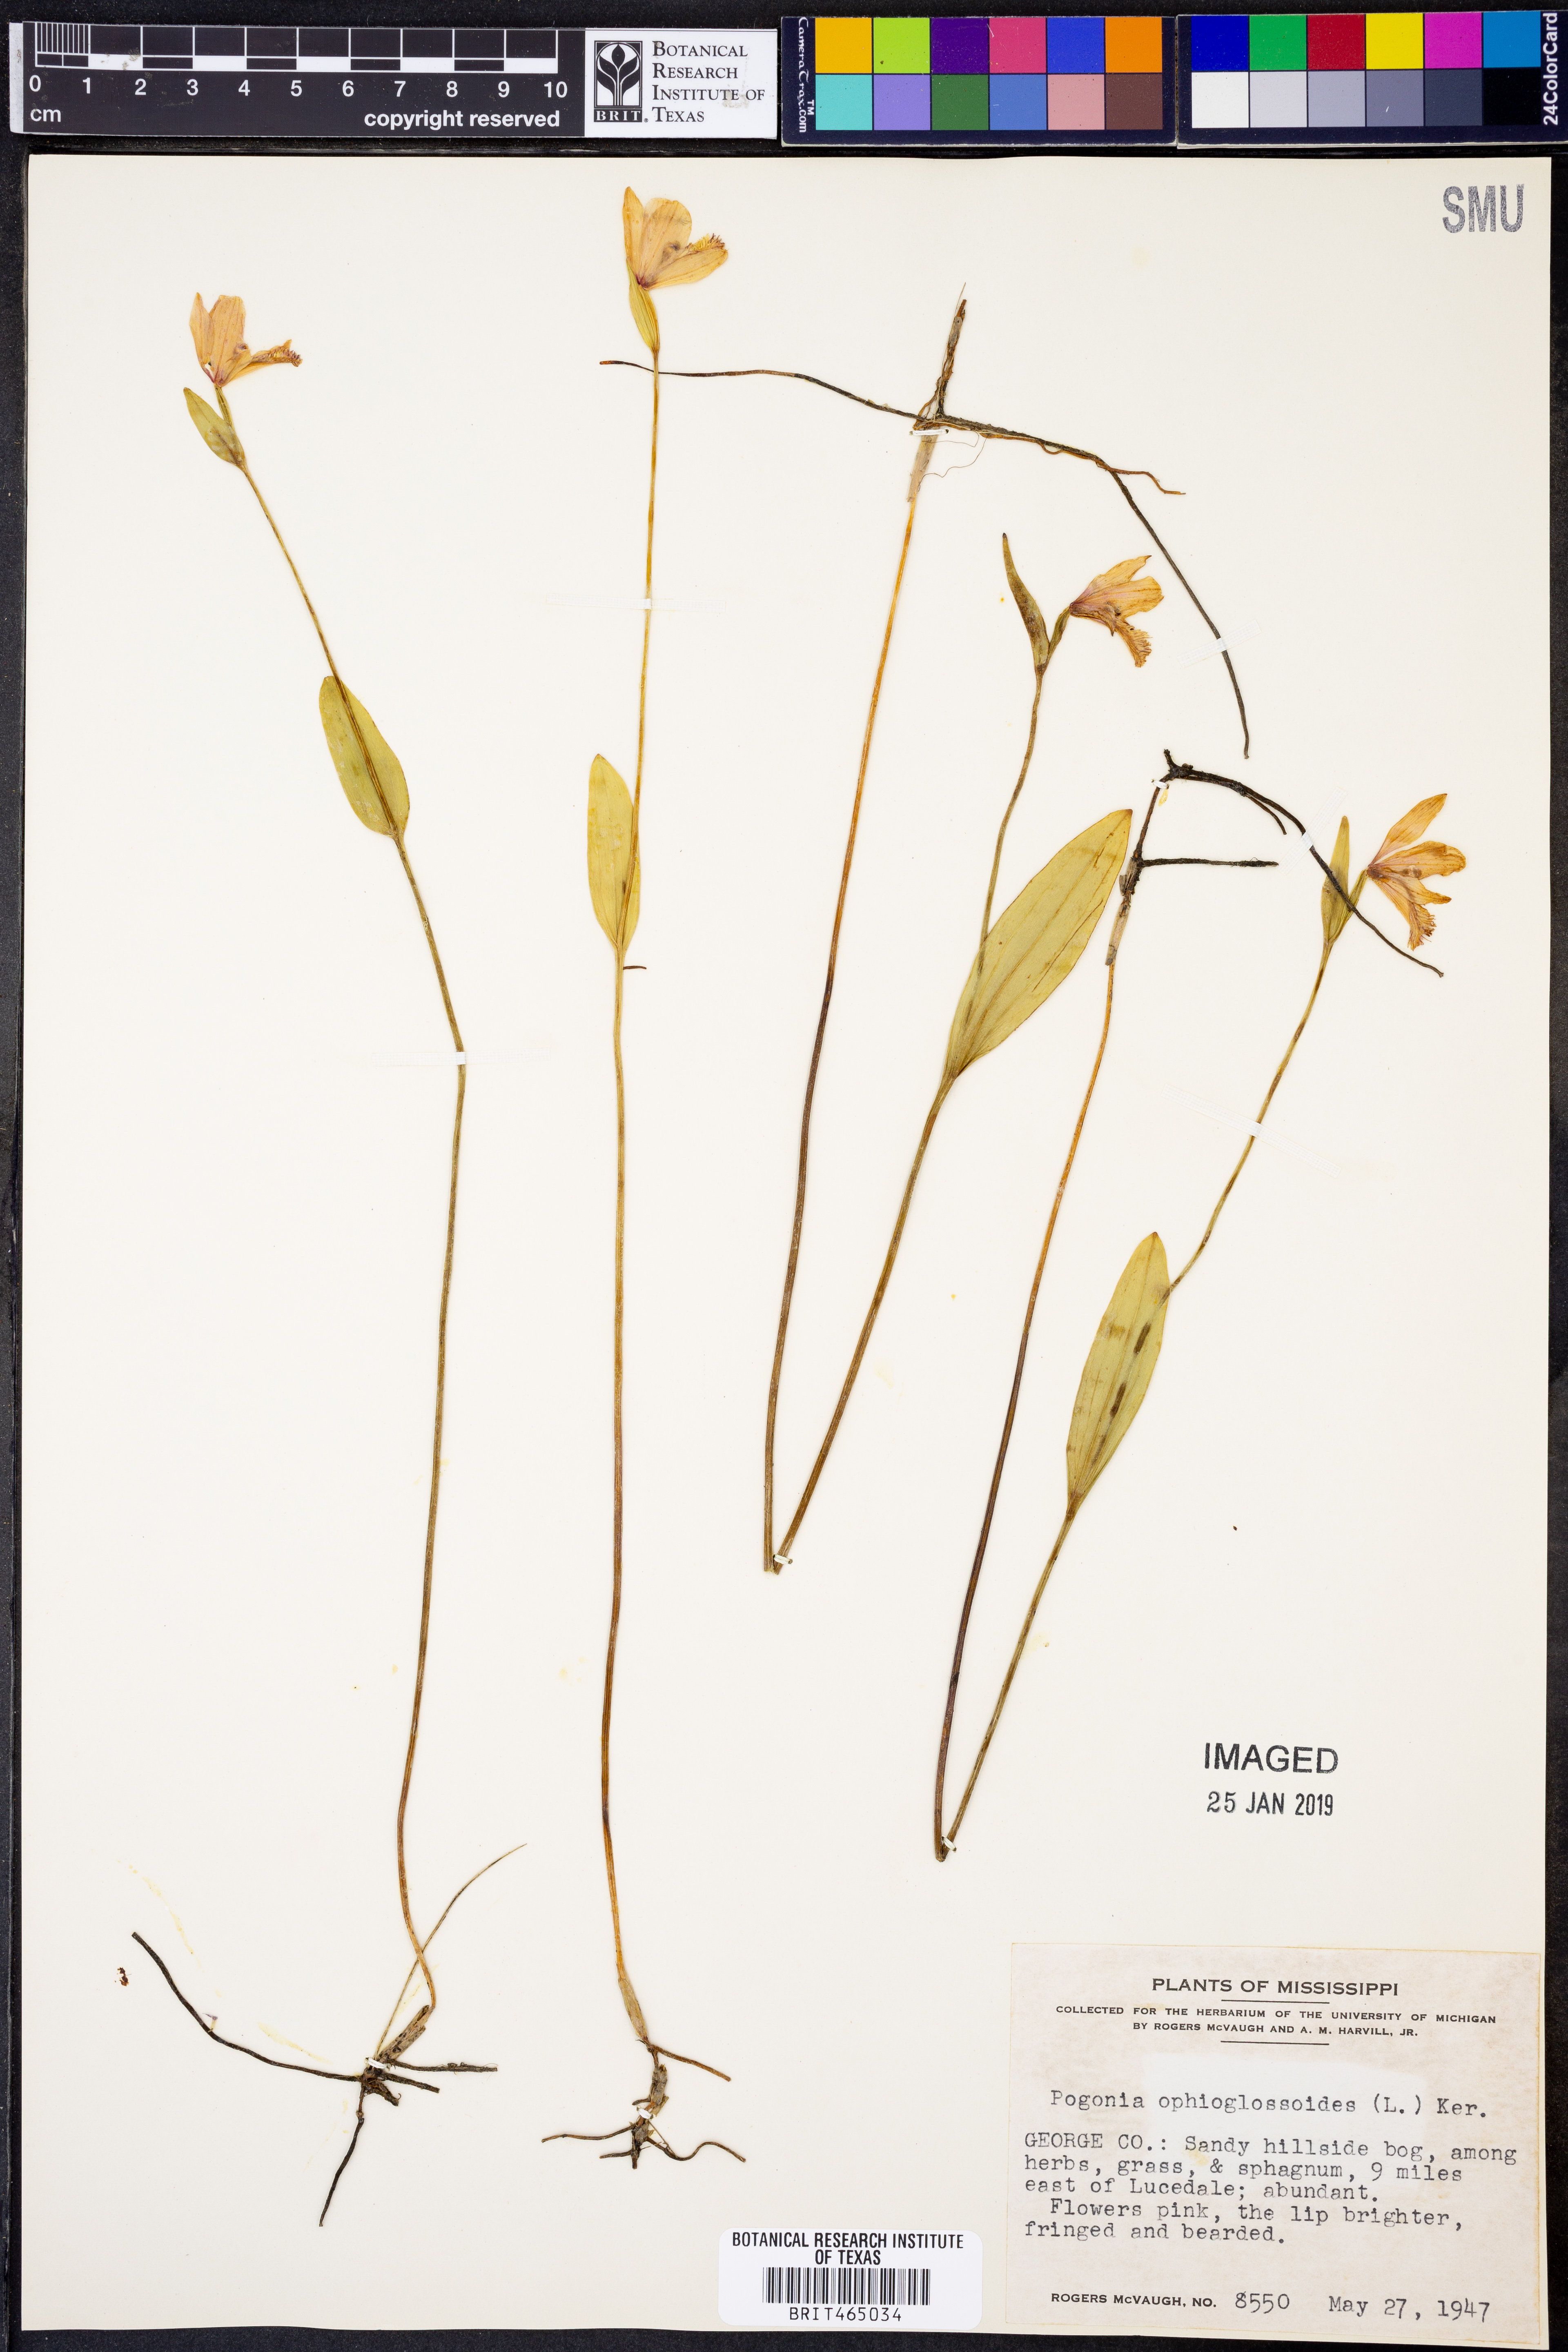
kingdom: Plantae
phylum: Tracheophyta
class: Liliopsida
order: Asparagales
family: Orchidaceae
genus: Pogonia
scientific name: Pogonia ophioglossoides
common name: Rose pogonia
